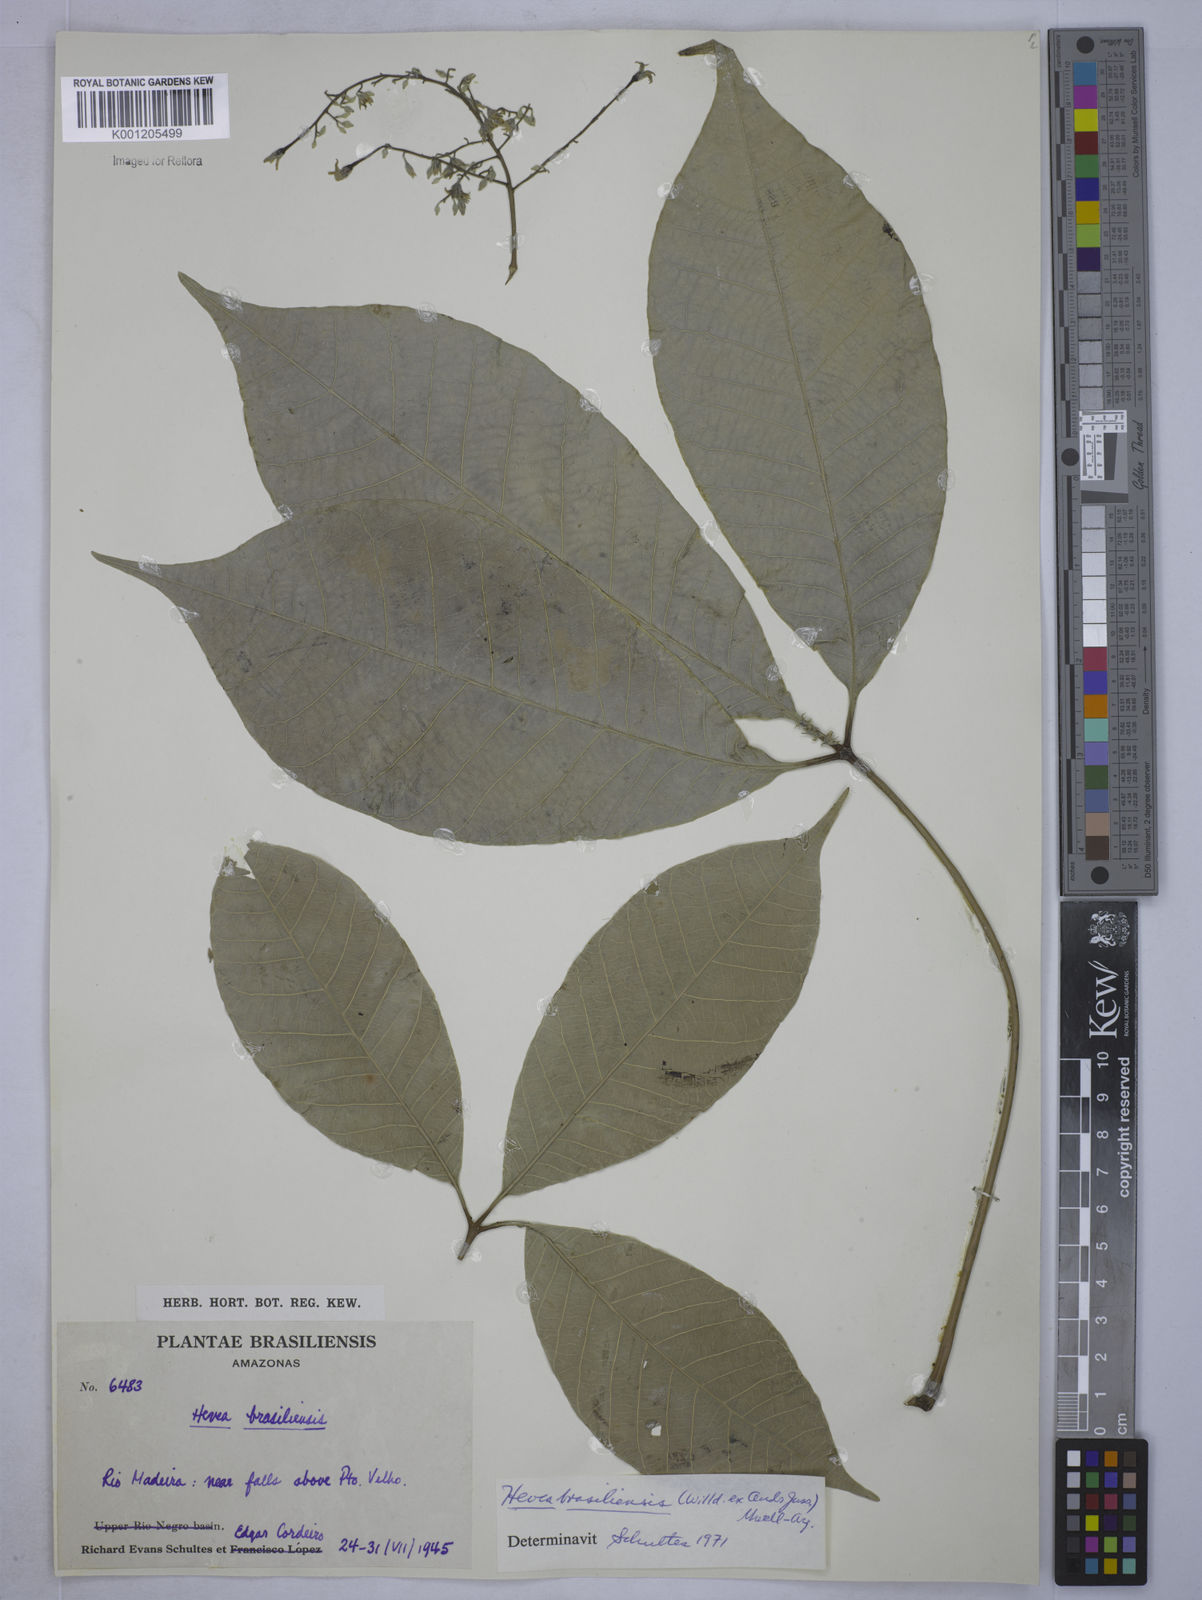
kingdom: Plantae
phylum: Tracheophyta
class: Magnoliopsida
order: Malpighiales
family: Euphorbiaceae
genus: Hevea
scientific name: Hevea
